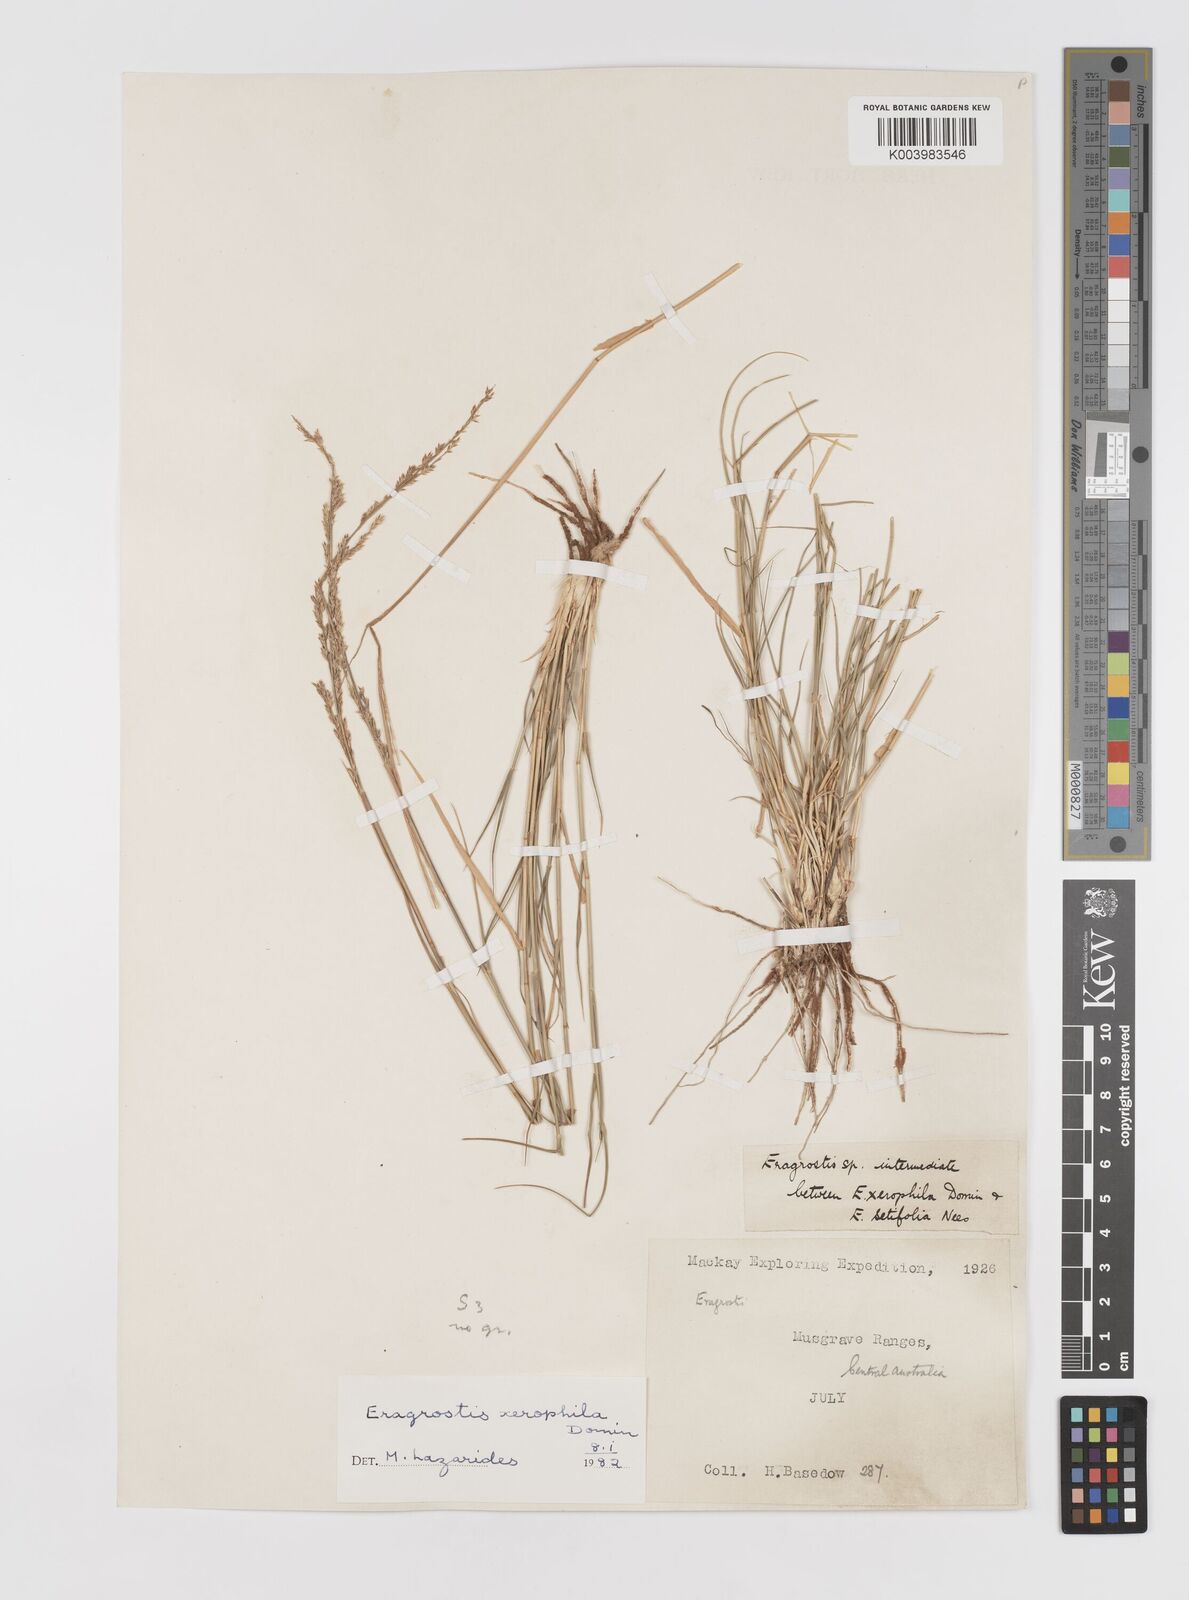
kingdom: Plantae
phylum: Tracheophyta
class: Liliopsida
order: Poales
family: Poaceae
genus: Eragrostis
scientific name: Eragrostis xerophila
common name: Wire wandarrie grass
